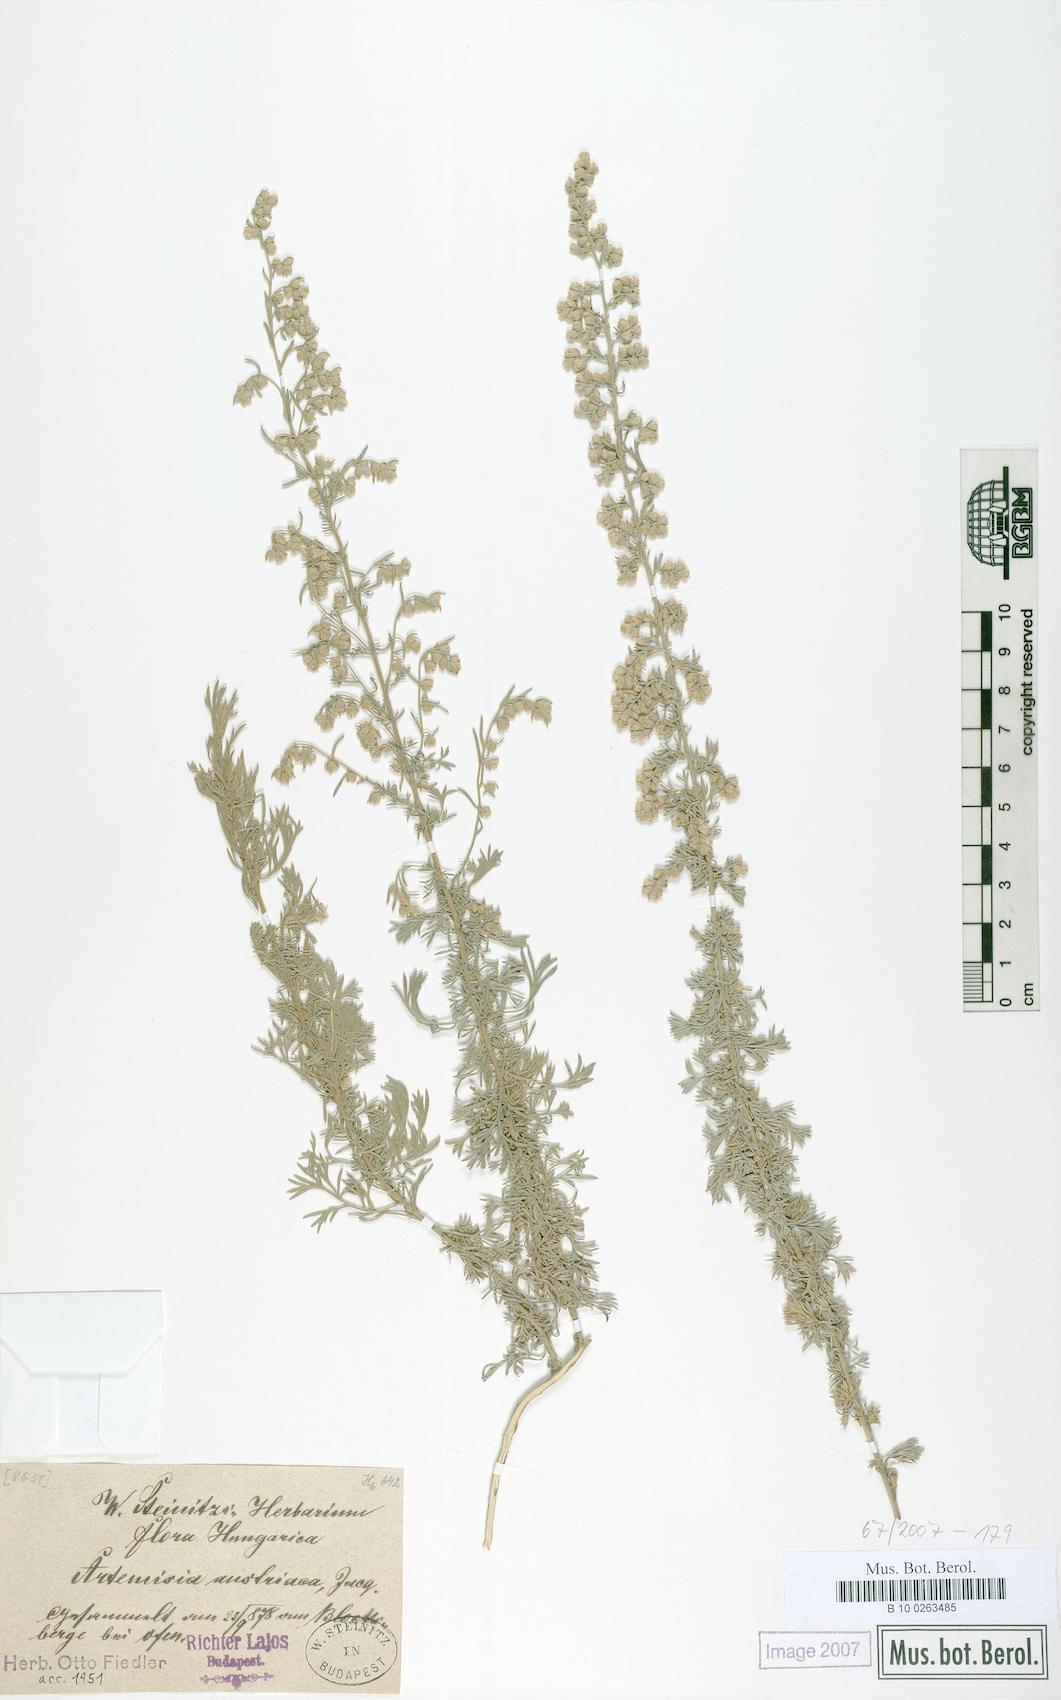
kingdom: Plantae
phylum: Tracheophyta
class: Magnoliopsida
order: Asterales
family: Asteraceae
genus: Artemisia
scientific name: Artemisia austriaca
